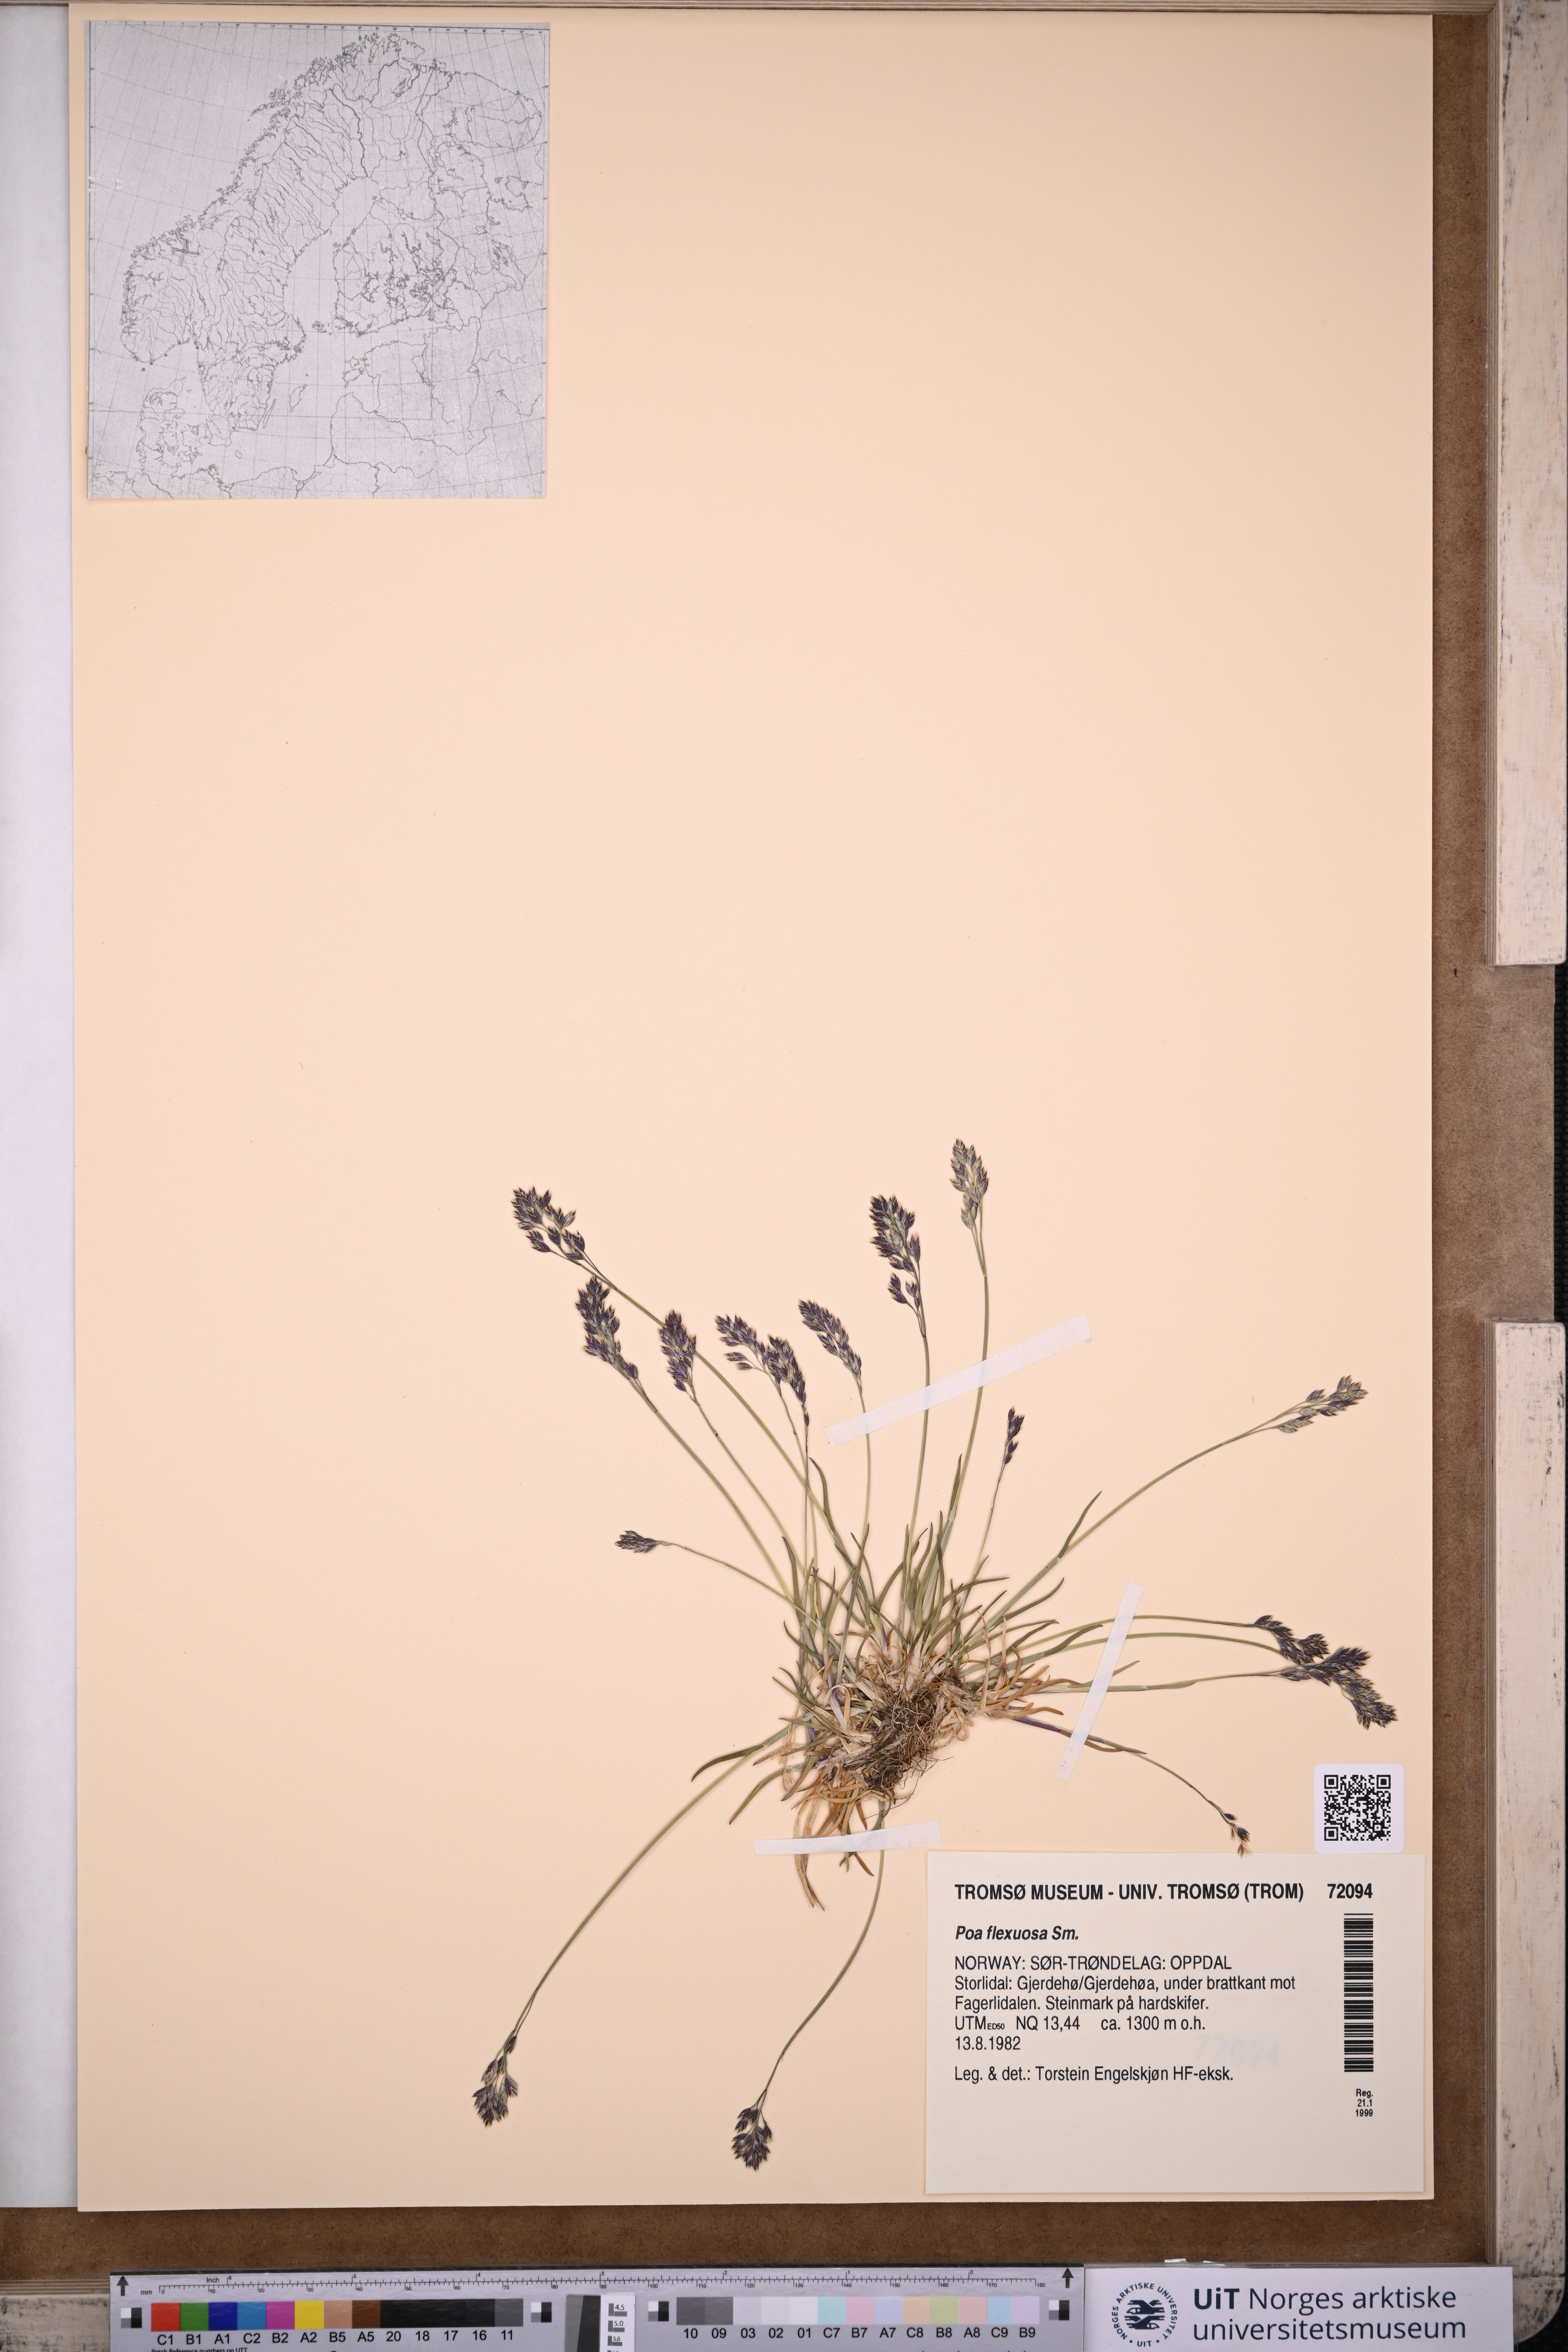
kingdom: Plantae
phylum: Tracheophyta
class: Liliopsida
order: Poales
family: Poaceae
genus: Poa
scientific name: Poa flexuosa
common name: Wavy meadow-grass
